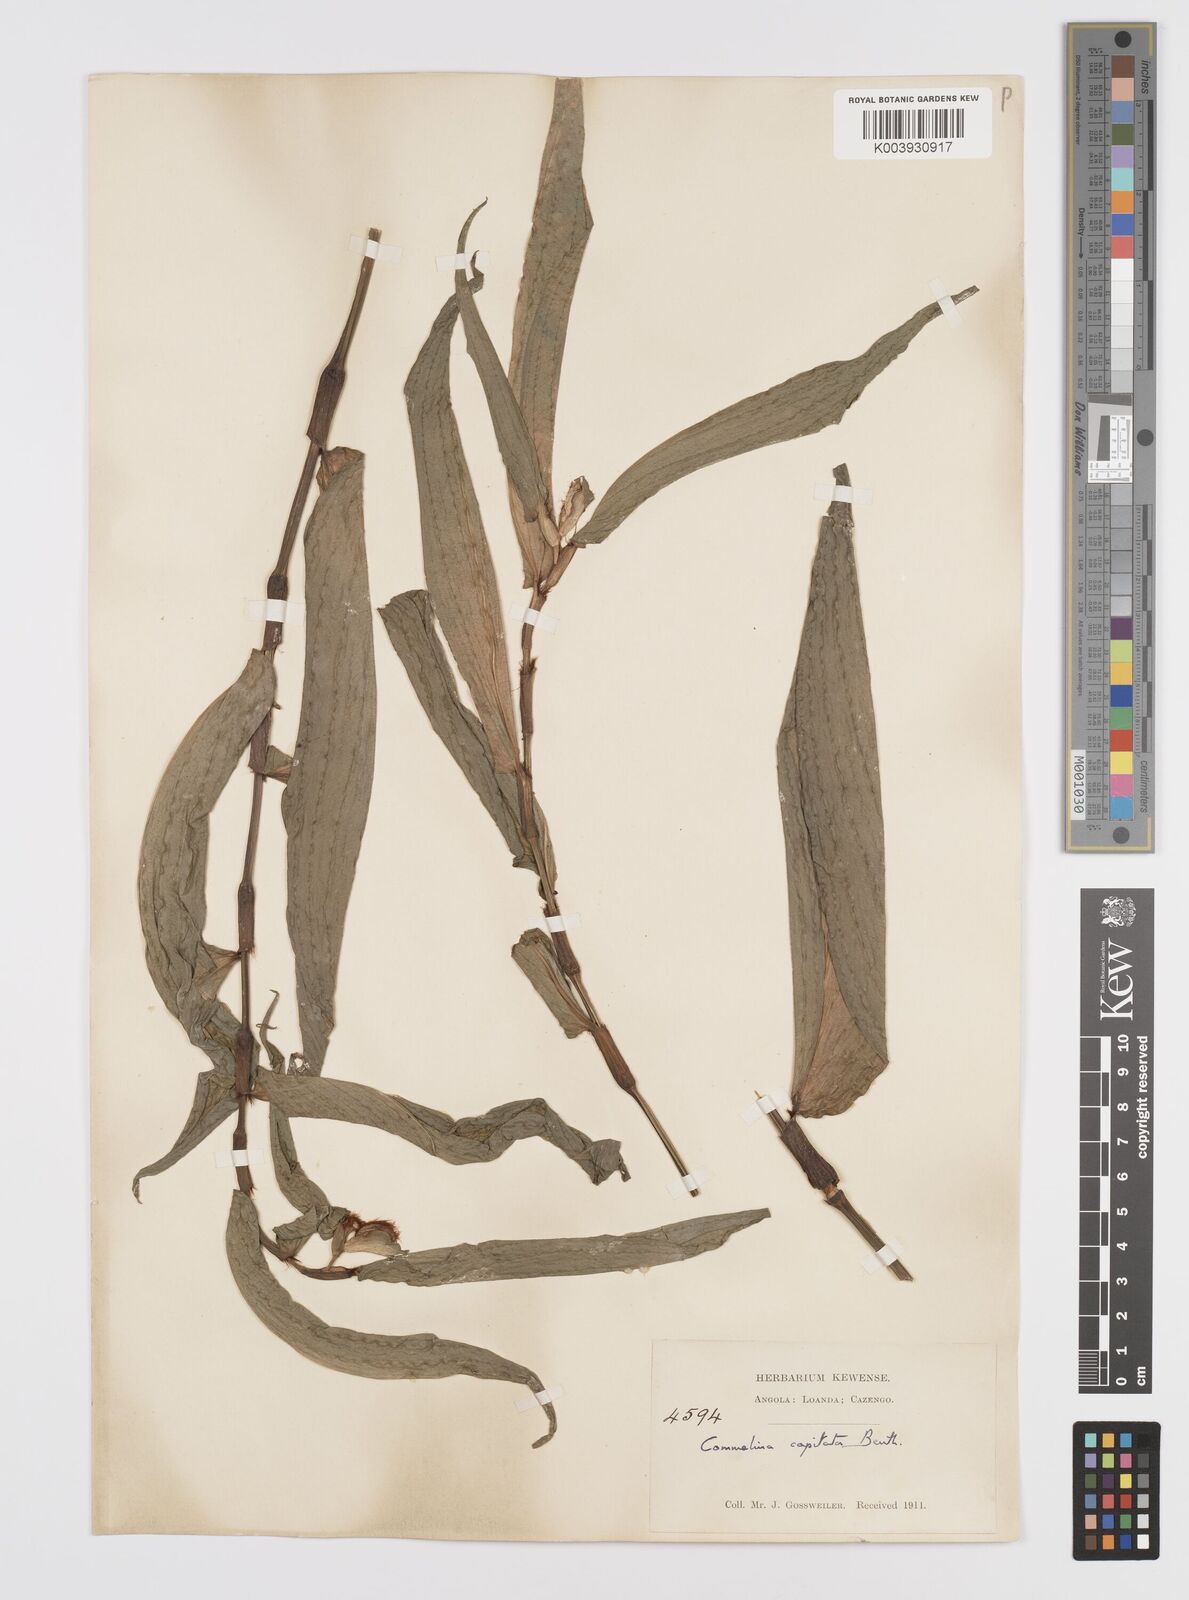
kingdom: Plantae
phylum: Tracheophyta
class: Liliopsida
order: Commelinales
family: Commelinaceae
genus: Commelina
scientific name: Commelina capitata
